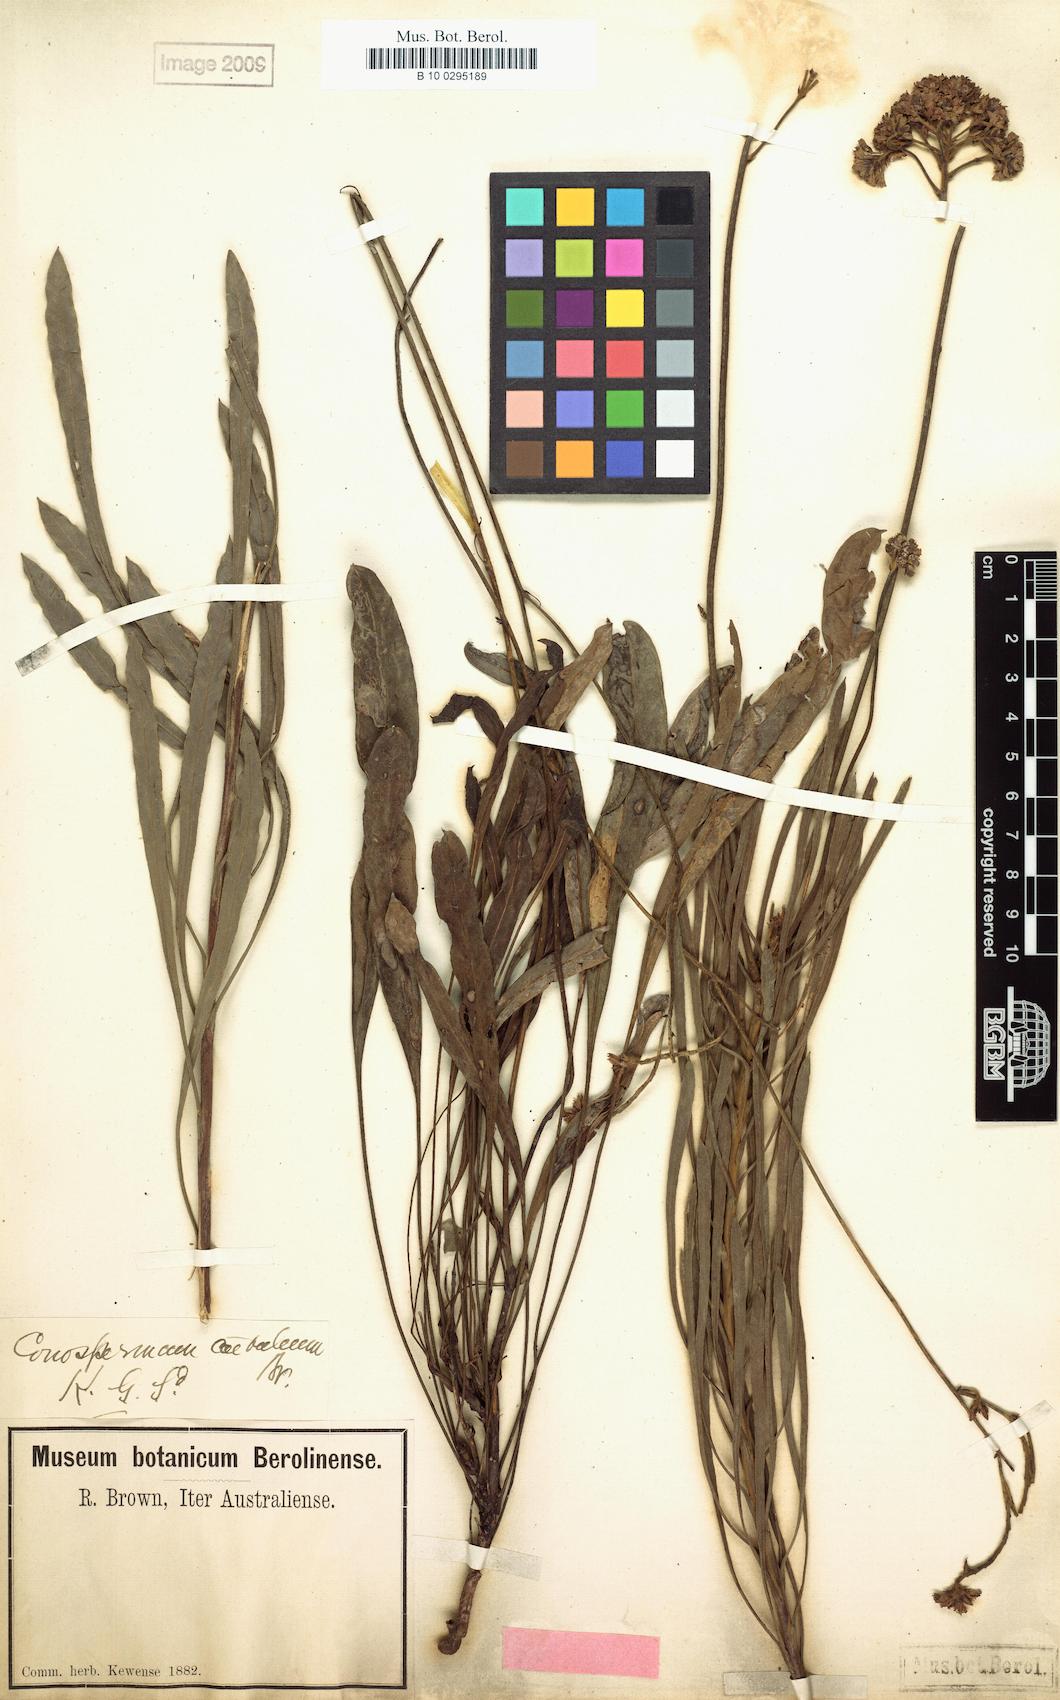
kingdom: Plantae
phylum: Tracheophyta
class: Magnoliopsida
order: Proteales
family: Proteaceae
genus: Conospermum
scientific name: Conospermum caeruleum
